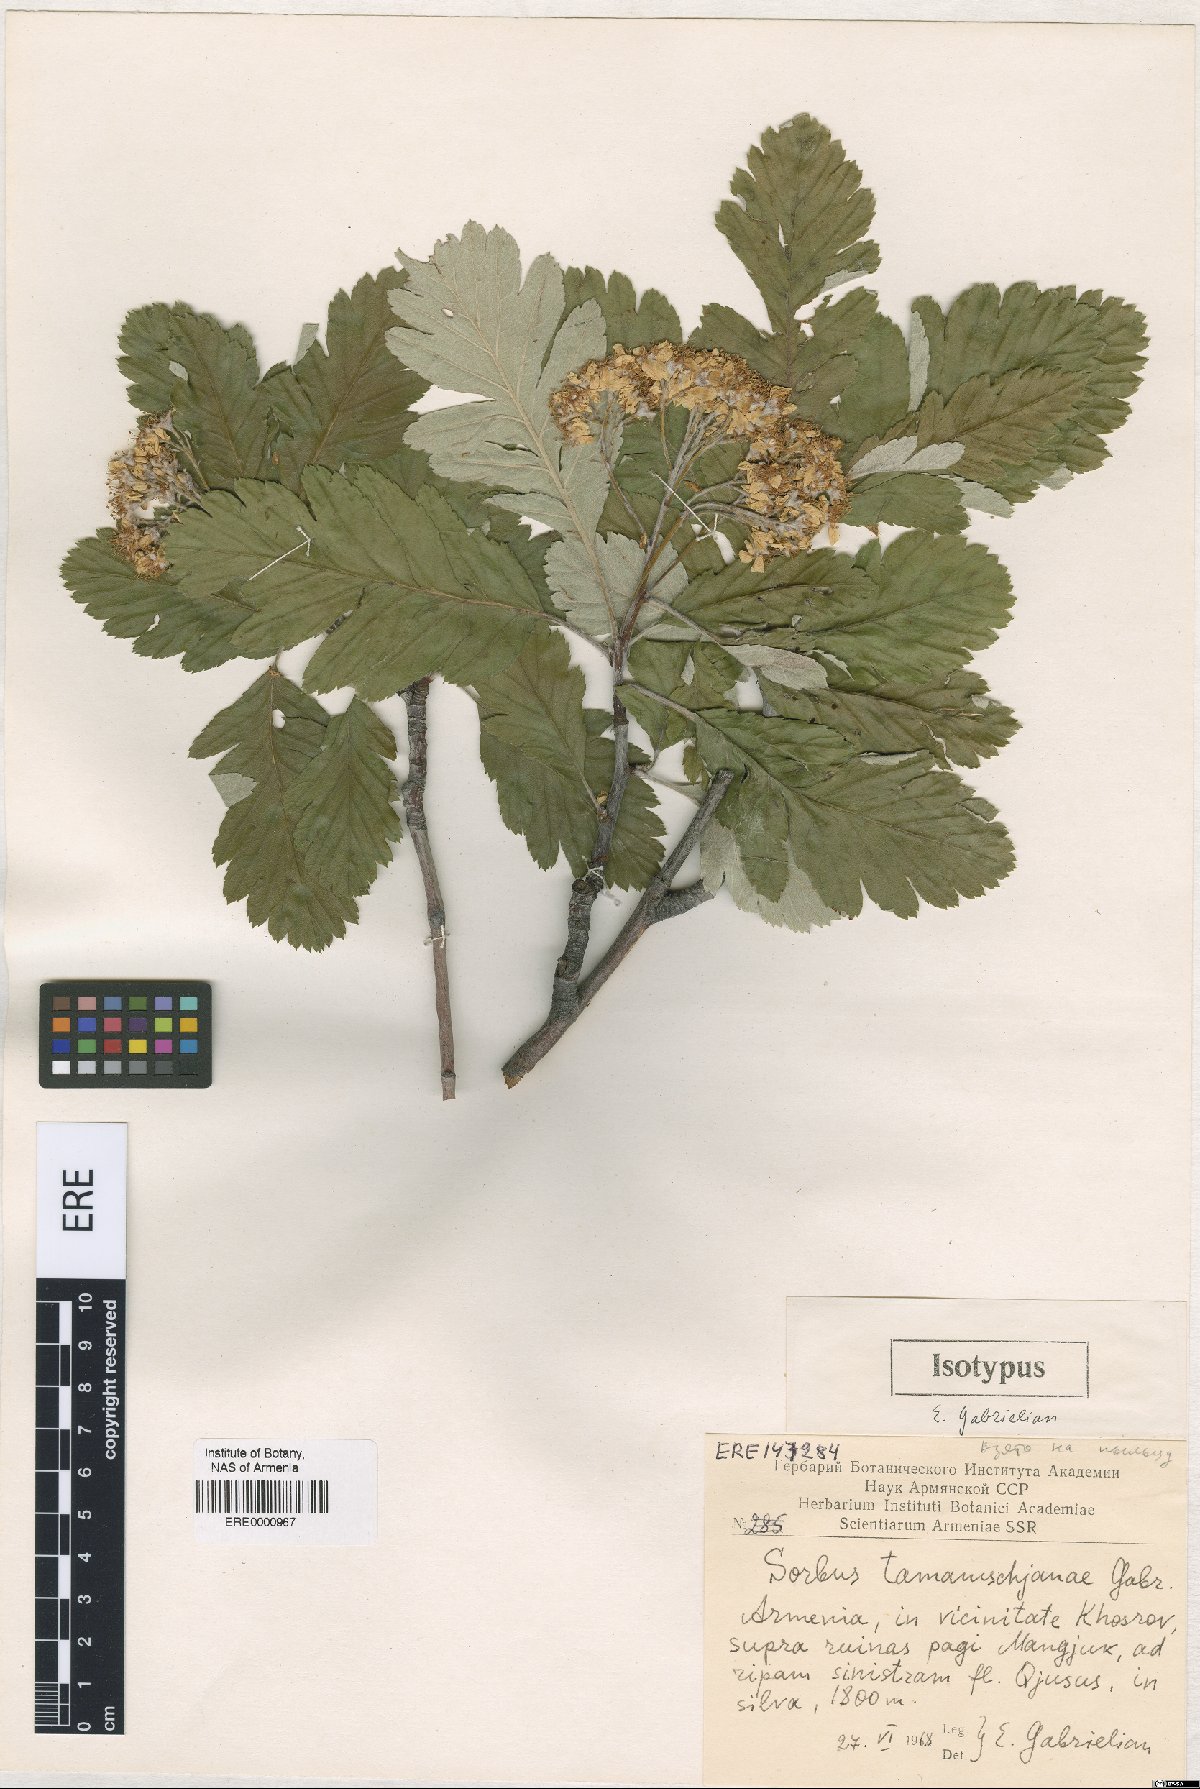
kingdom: Plantae
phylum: Tracheophyta
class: Magnoliopsida
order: Rosales
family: Rosaceae
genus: Hedlundia
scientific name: Hedlundia tamamschjanae
